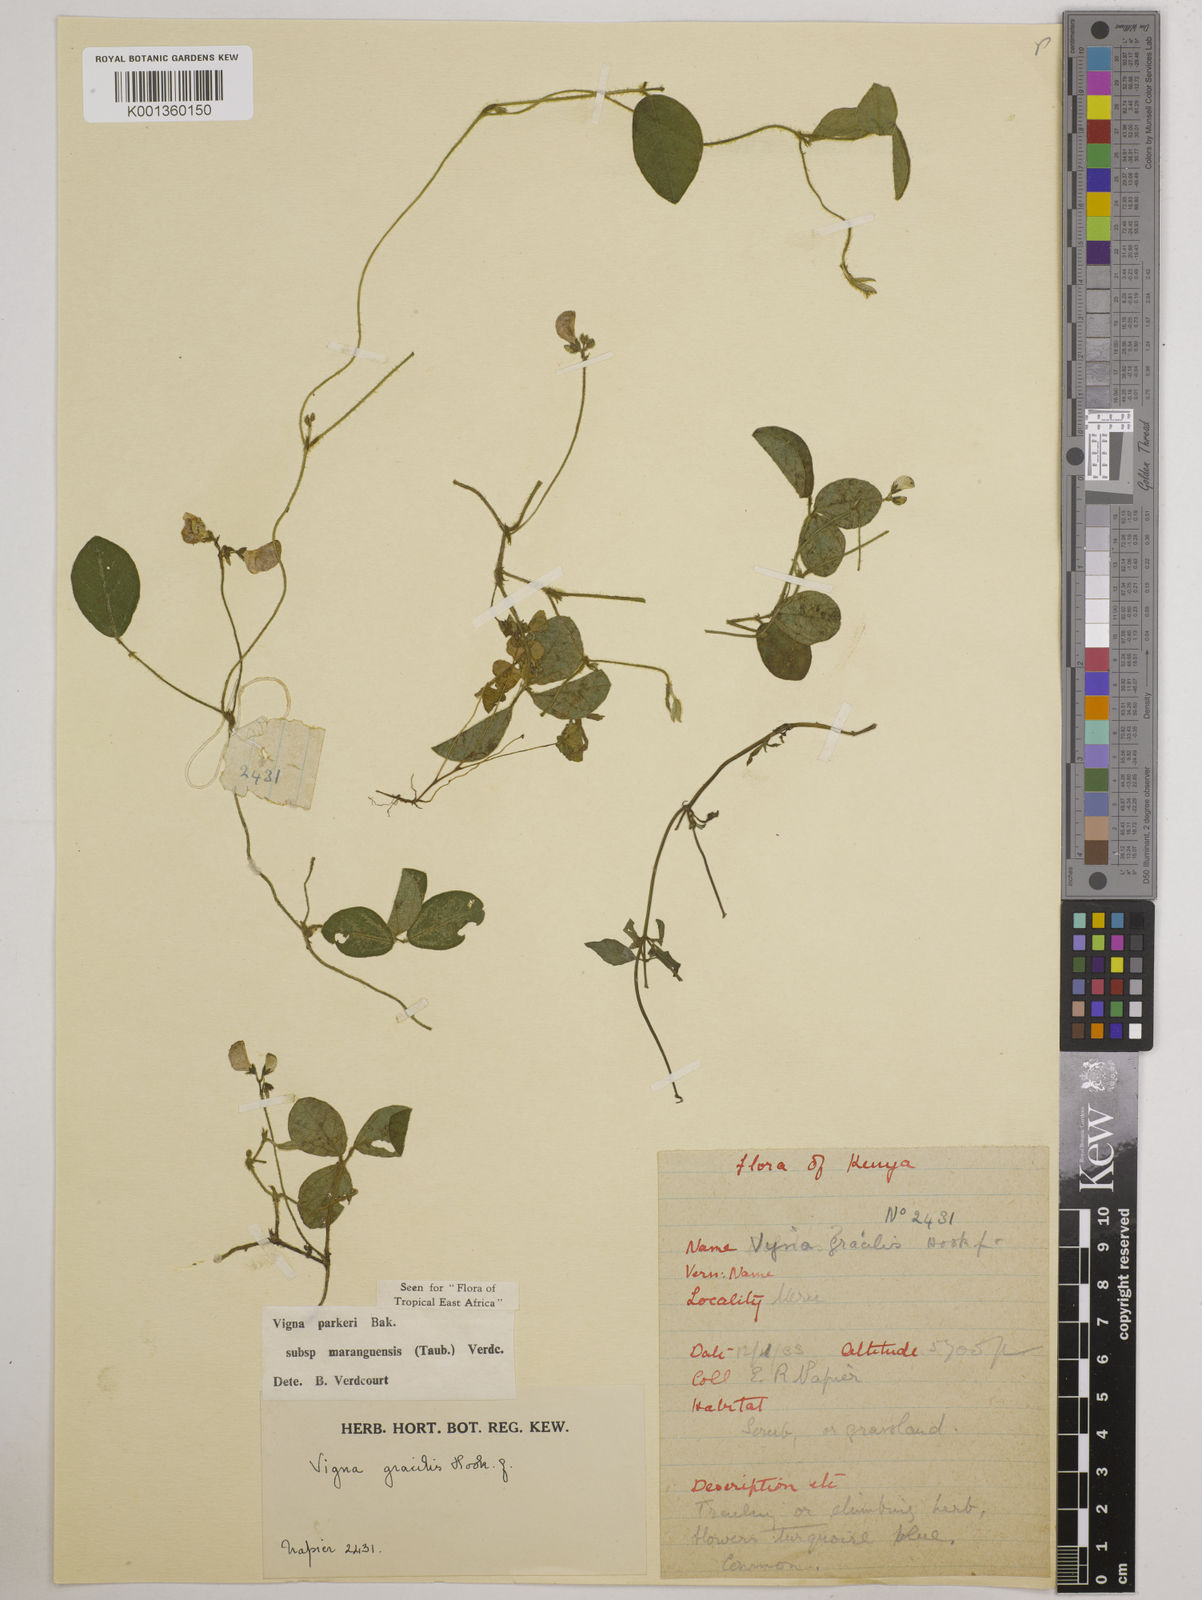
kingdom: Plantae
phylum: Tracheophyta
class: Magnoliopsida
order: Fabales
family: Fabaceae
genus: Vigna
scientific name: Vigna
